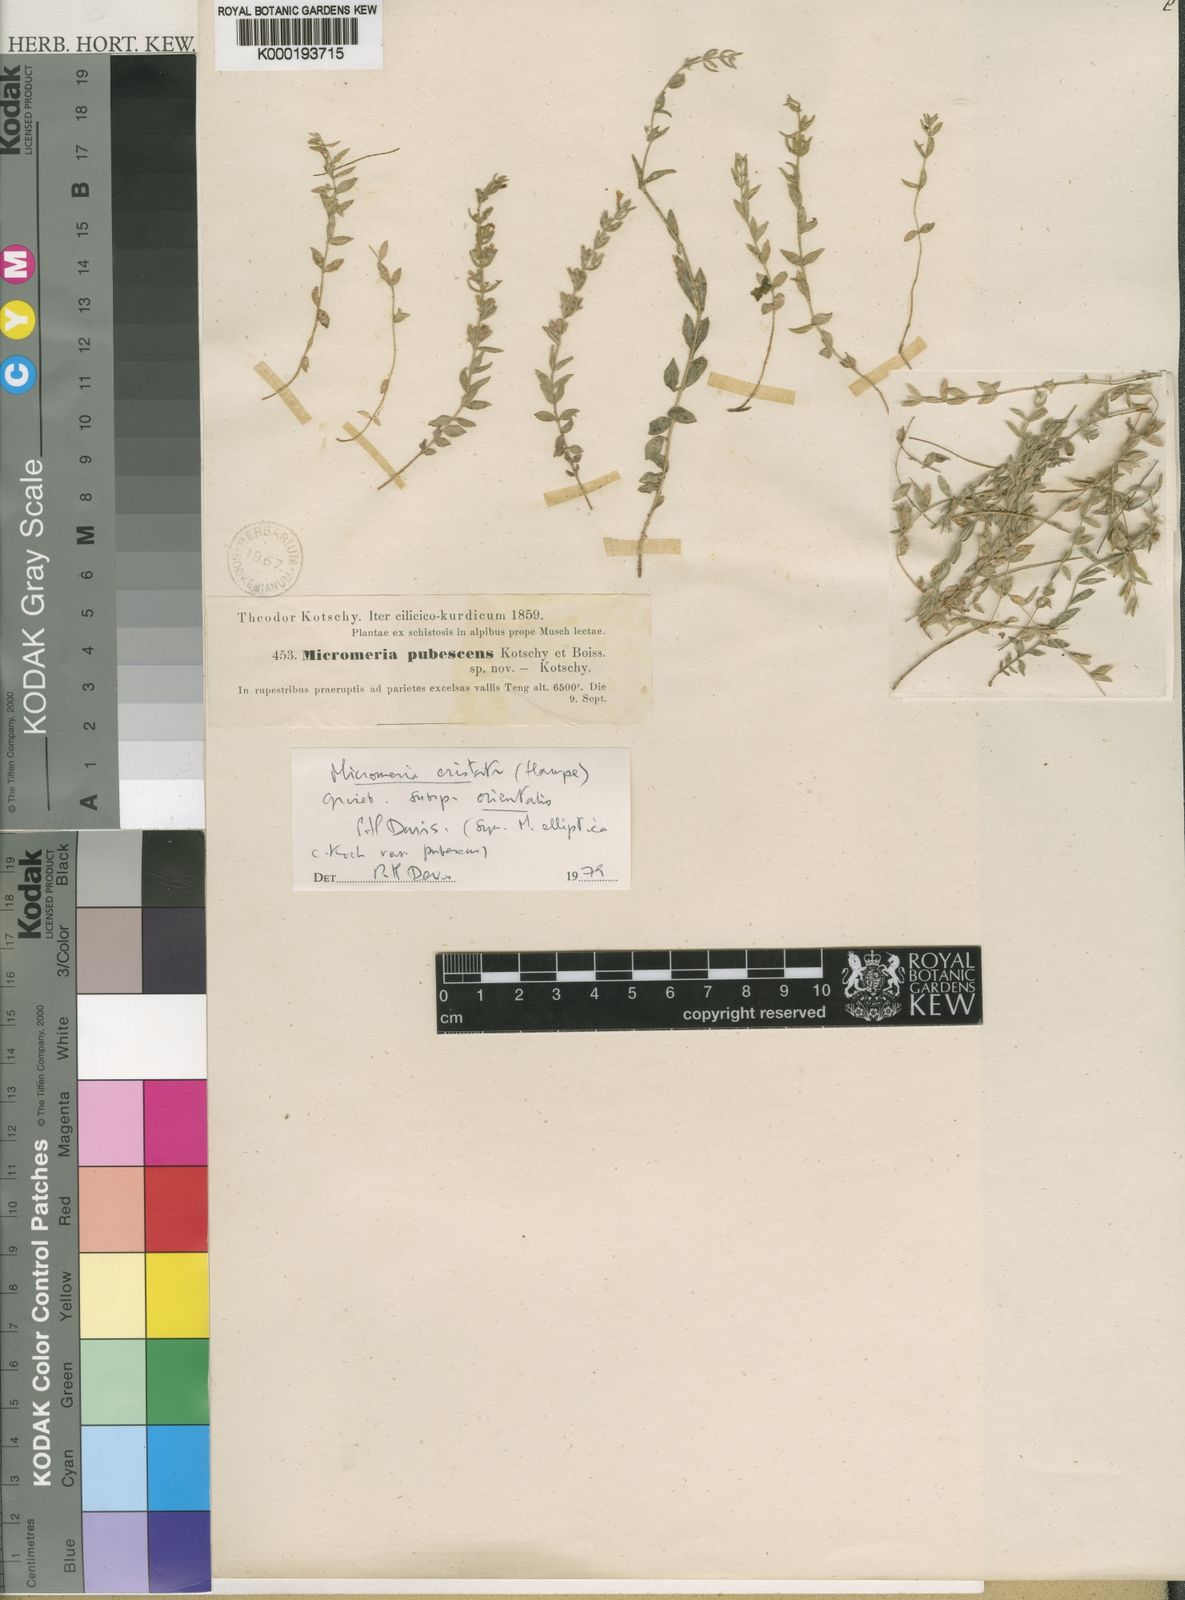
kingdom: Plantae
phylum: Tracheophyta
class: Magnoliopsida
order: Lamiales
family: Lamiaceae
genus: Micromeria
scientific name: Micromeria cristata
